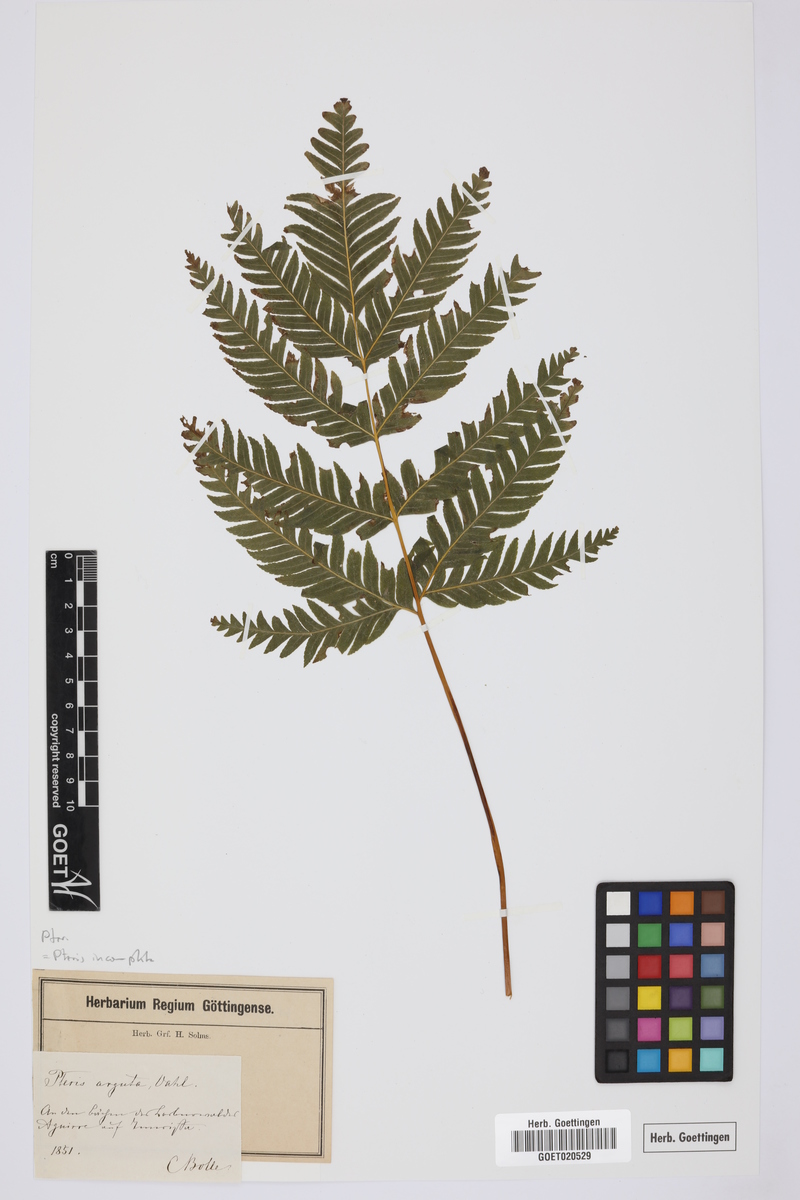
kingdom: Plantae
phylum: Tracheophyta
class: Polypodiopsida
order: Polypodiales
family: Pteridaceae
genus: Pteris
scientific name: Pteris incompleta
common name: Laurisilva brake
